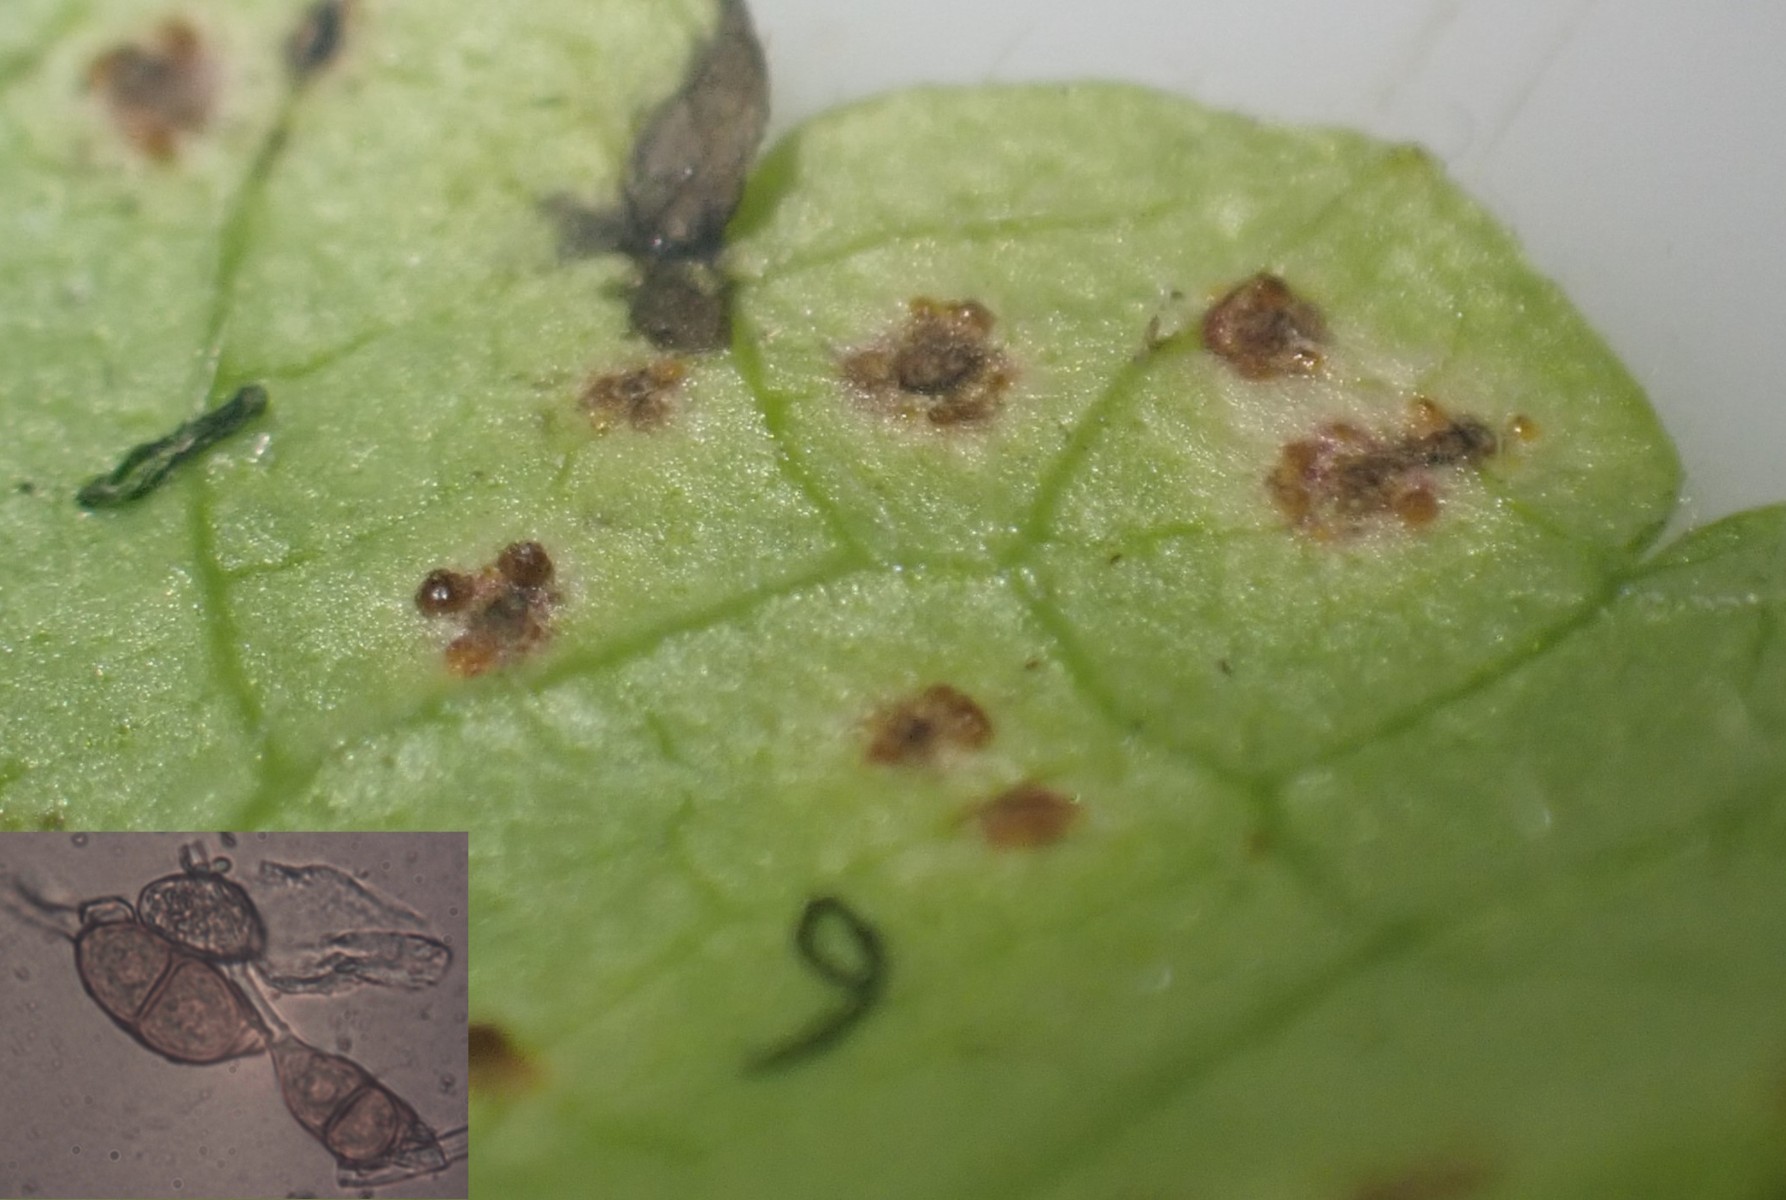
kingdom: Fungi
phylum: Basidiomycota
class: Pucciniomycetes
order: Pucciniales
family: Pucciniaceae
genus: Puccinia
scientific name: Puccinia glechomatis
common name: Ground ivy rust
